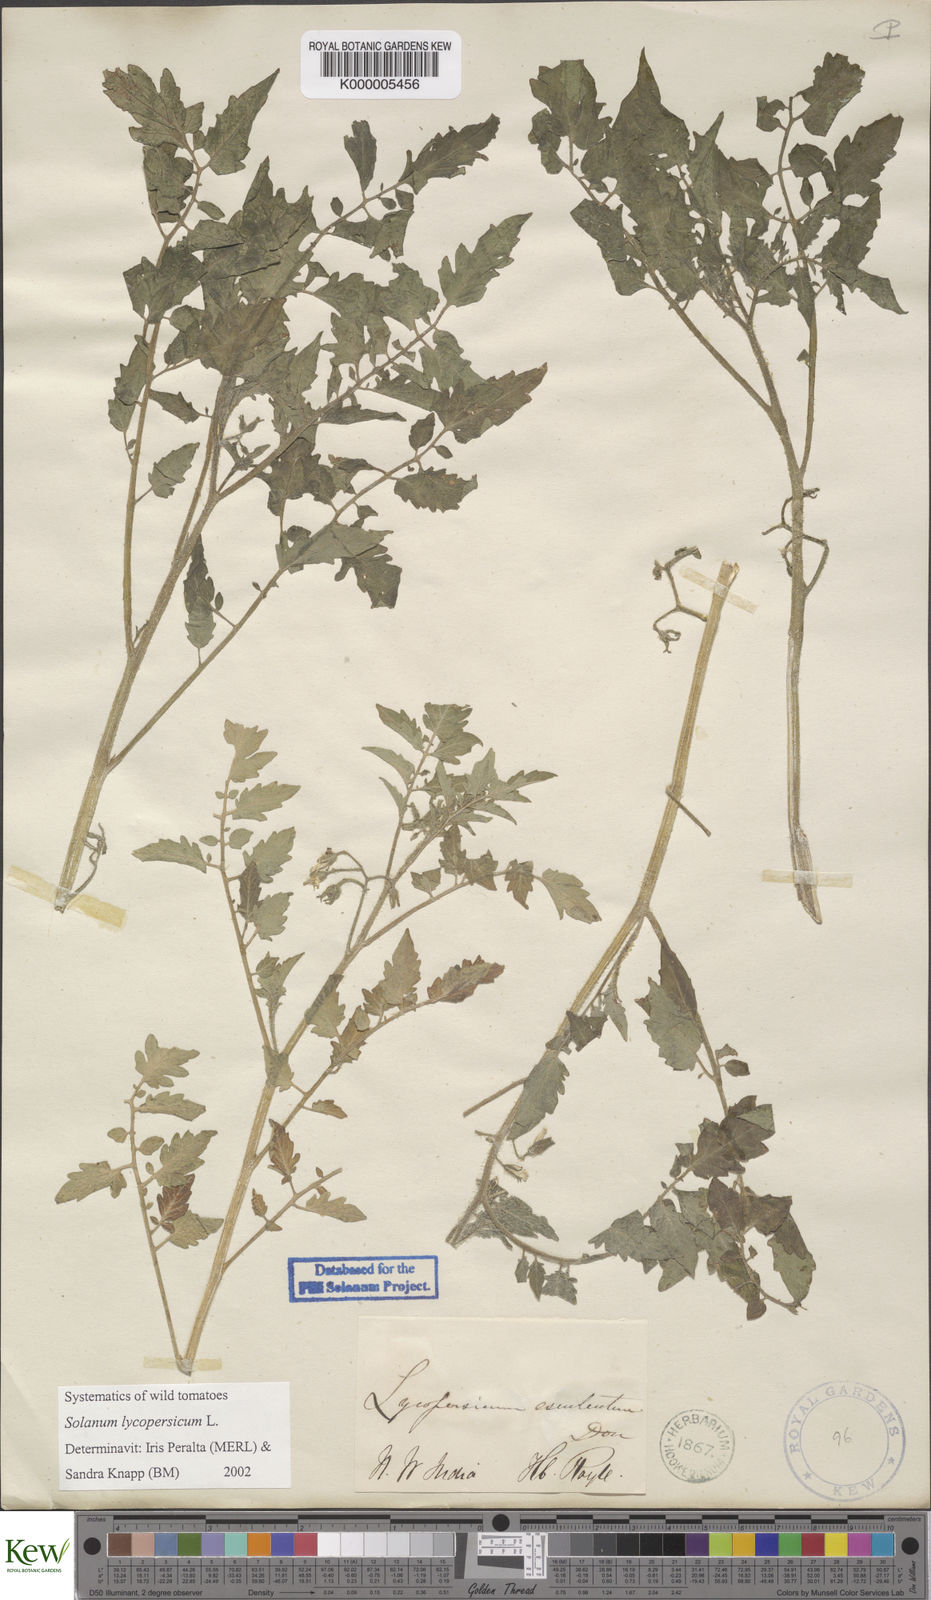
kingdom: Plantae
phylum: Tracheophyta
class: Magnoliopsida
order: Solanales
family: Solanaceae
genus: Solanum
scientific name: Solanum lycopersicum
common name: Garden tomato
